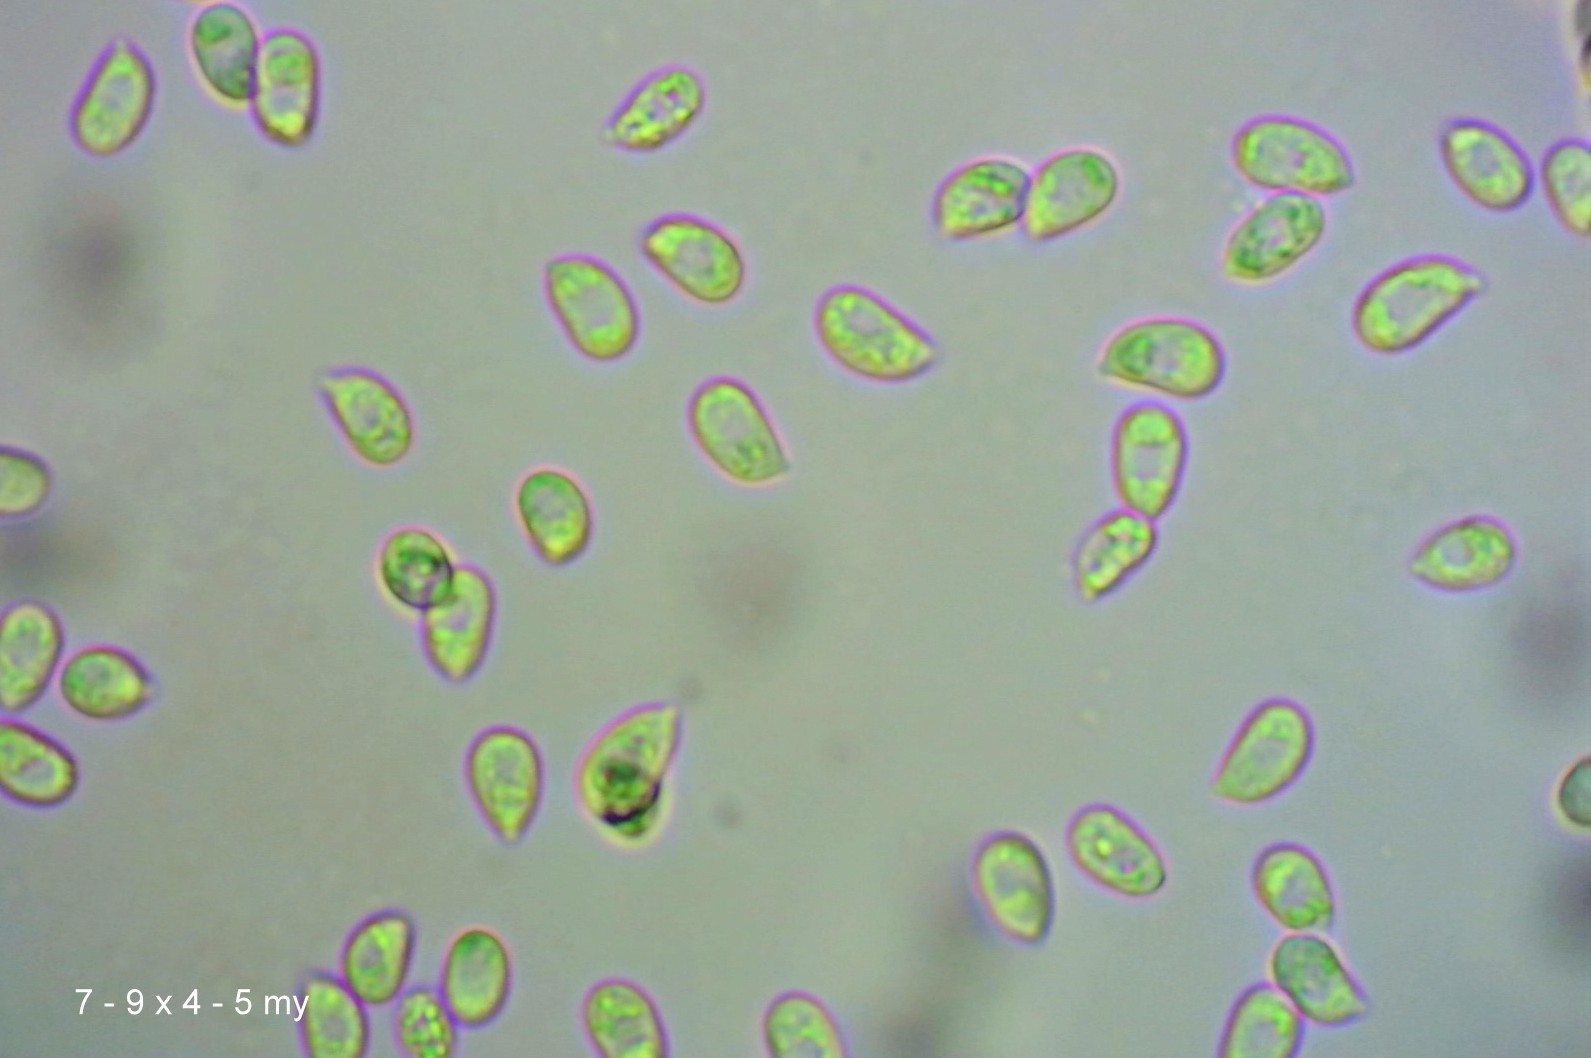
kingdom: Fungi
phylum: Basidiomycota
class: Agaricomycetes
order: Agaricales
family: Mycenaceae
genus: Mycena
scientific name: Mycena sanguinolenta
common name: rødmælket huesvamp
